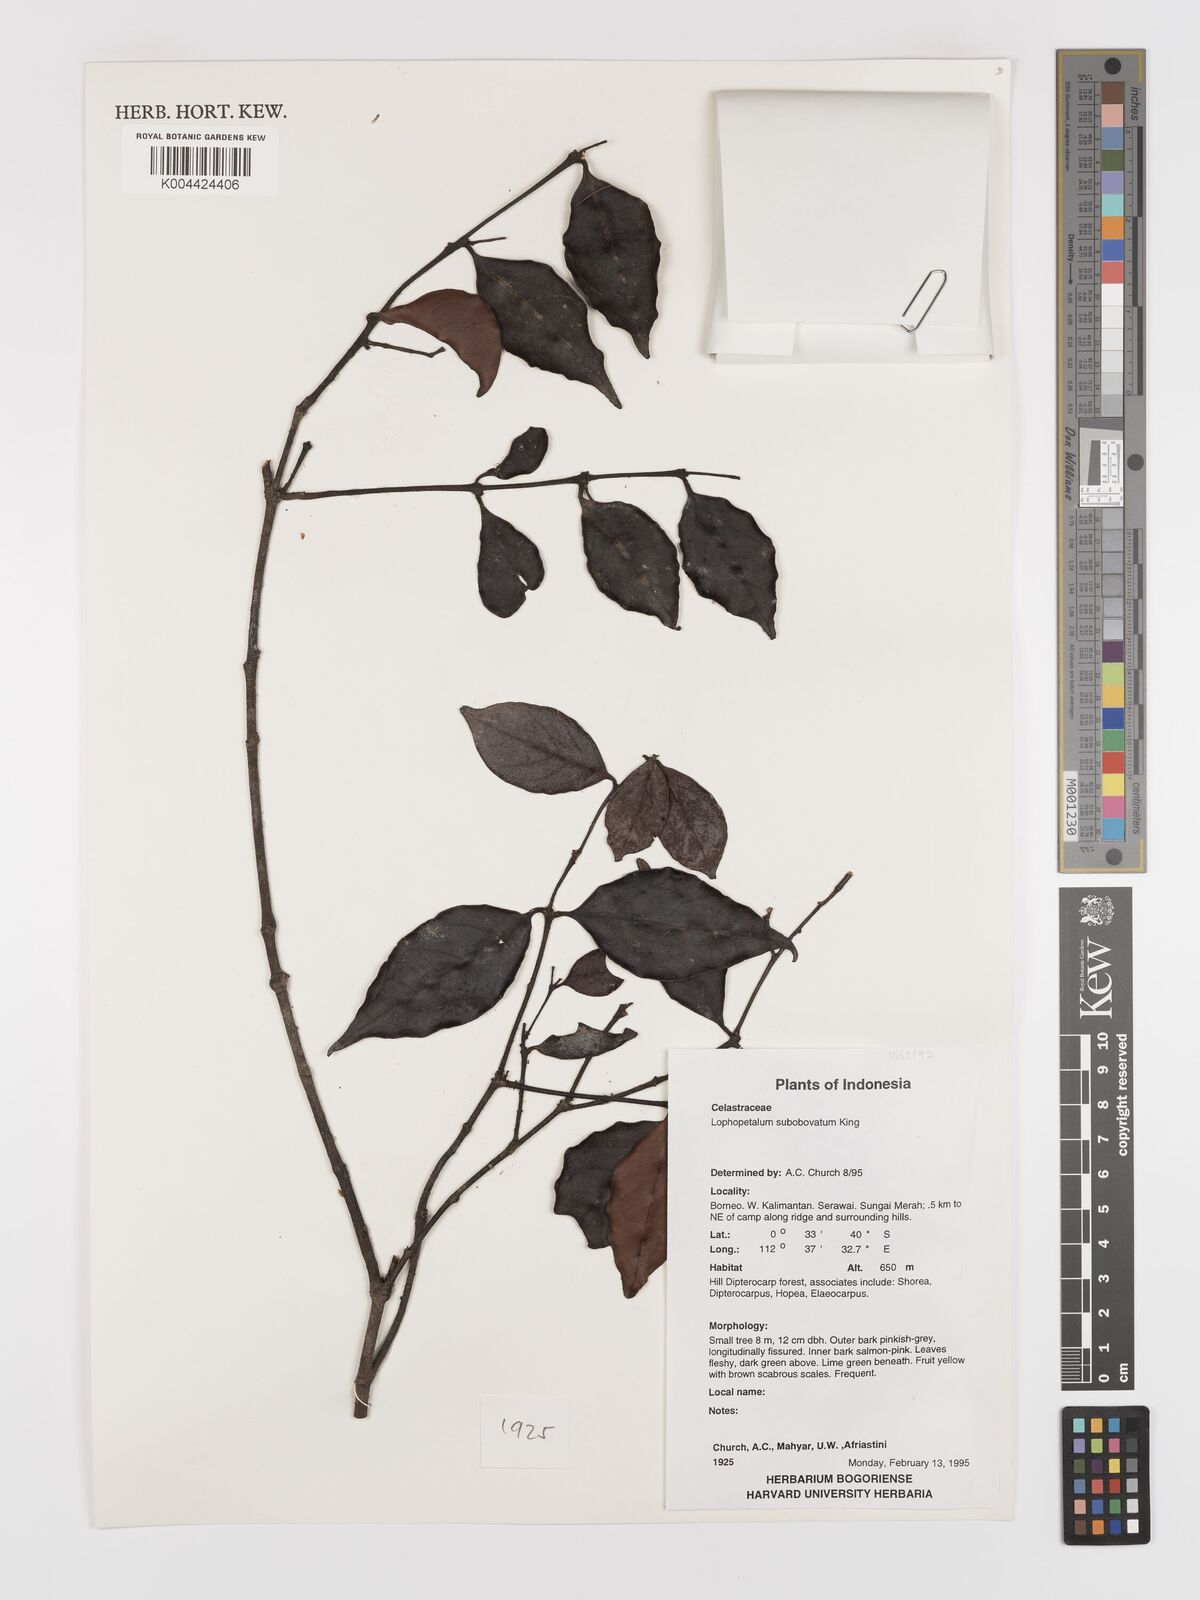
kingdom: Plantae
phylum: Tracheophyta
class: Magnoliopsida
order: Celastrales
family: Celastraceae
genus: Lophopetalum
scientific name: Lophopetalum
